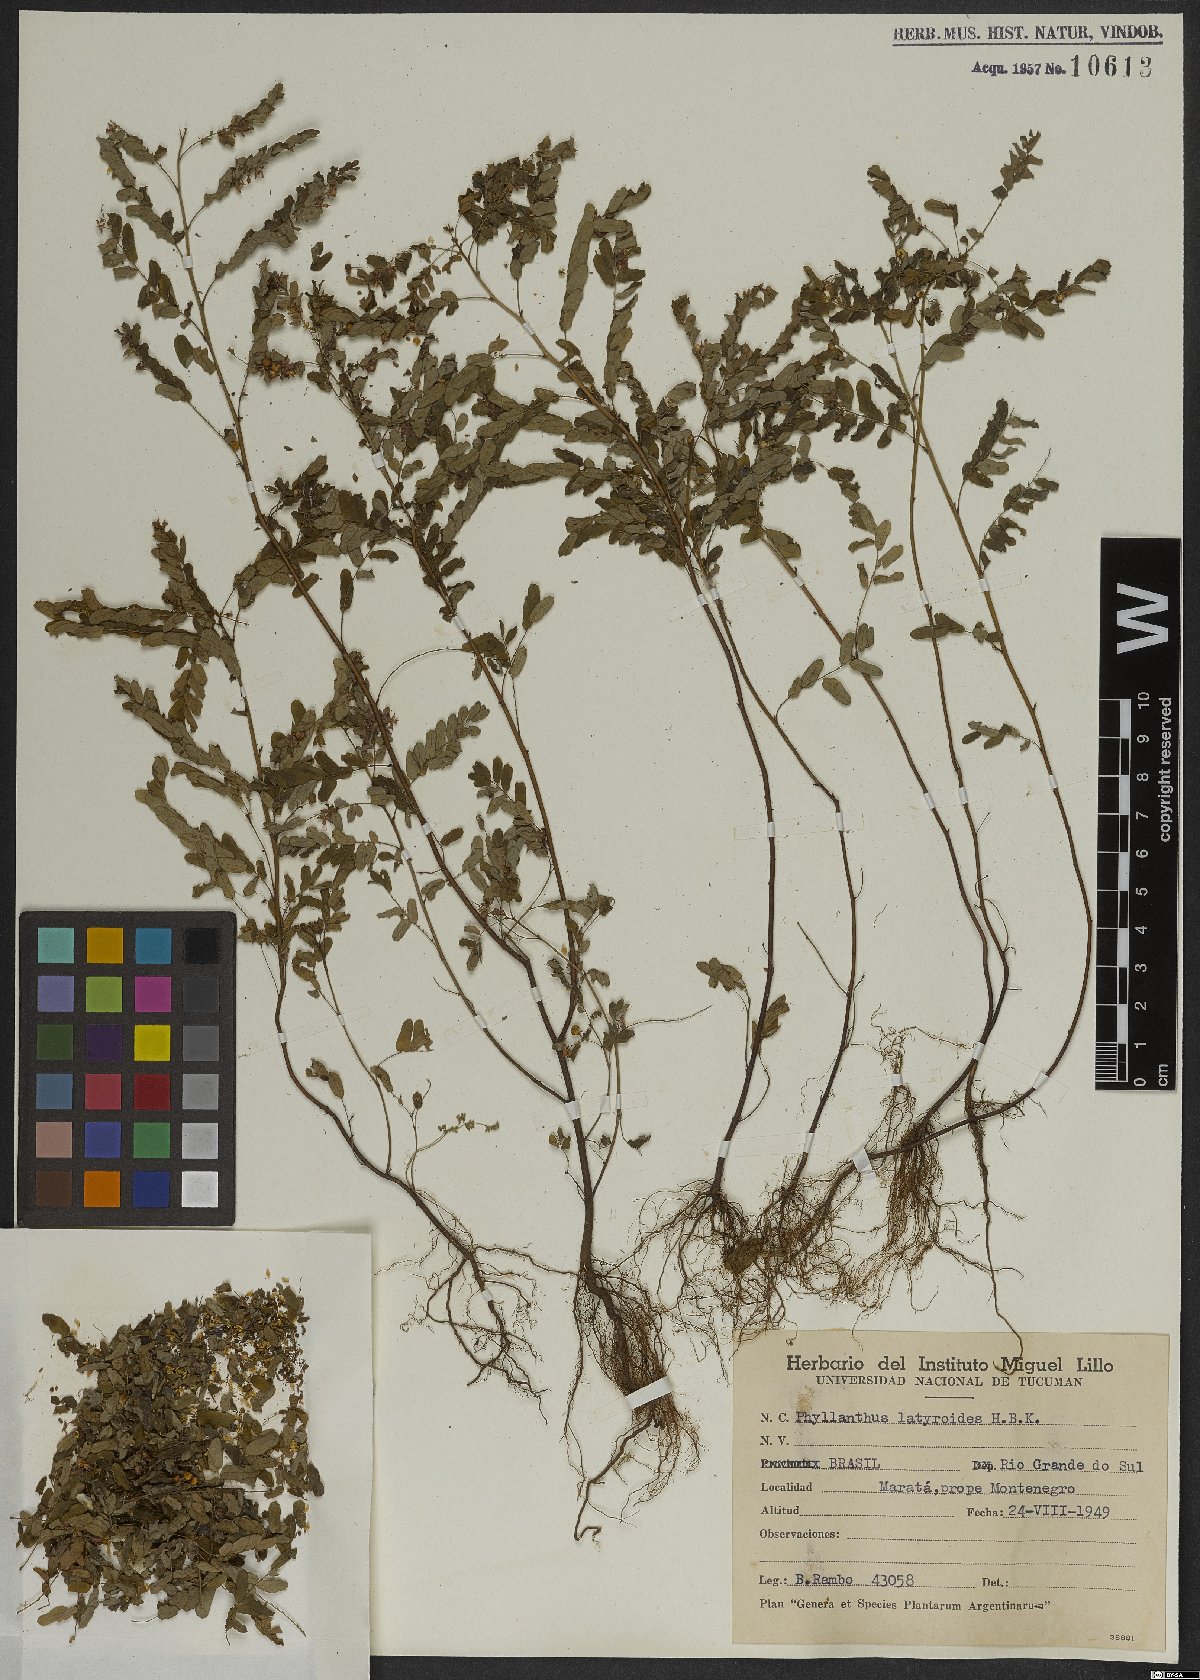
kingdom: Plantae
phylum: Tracheophyta
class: Magnoliopsida
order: Malpighiales
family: Phyllanthaceae
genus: Phyllanthus
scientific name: Phyllanthus niruri
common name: Niruri
